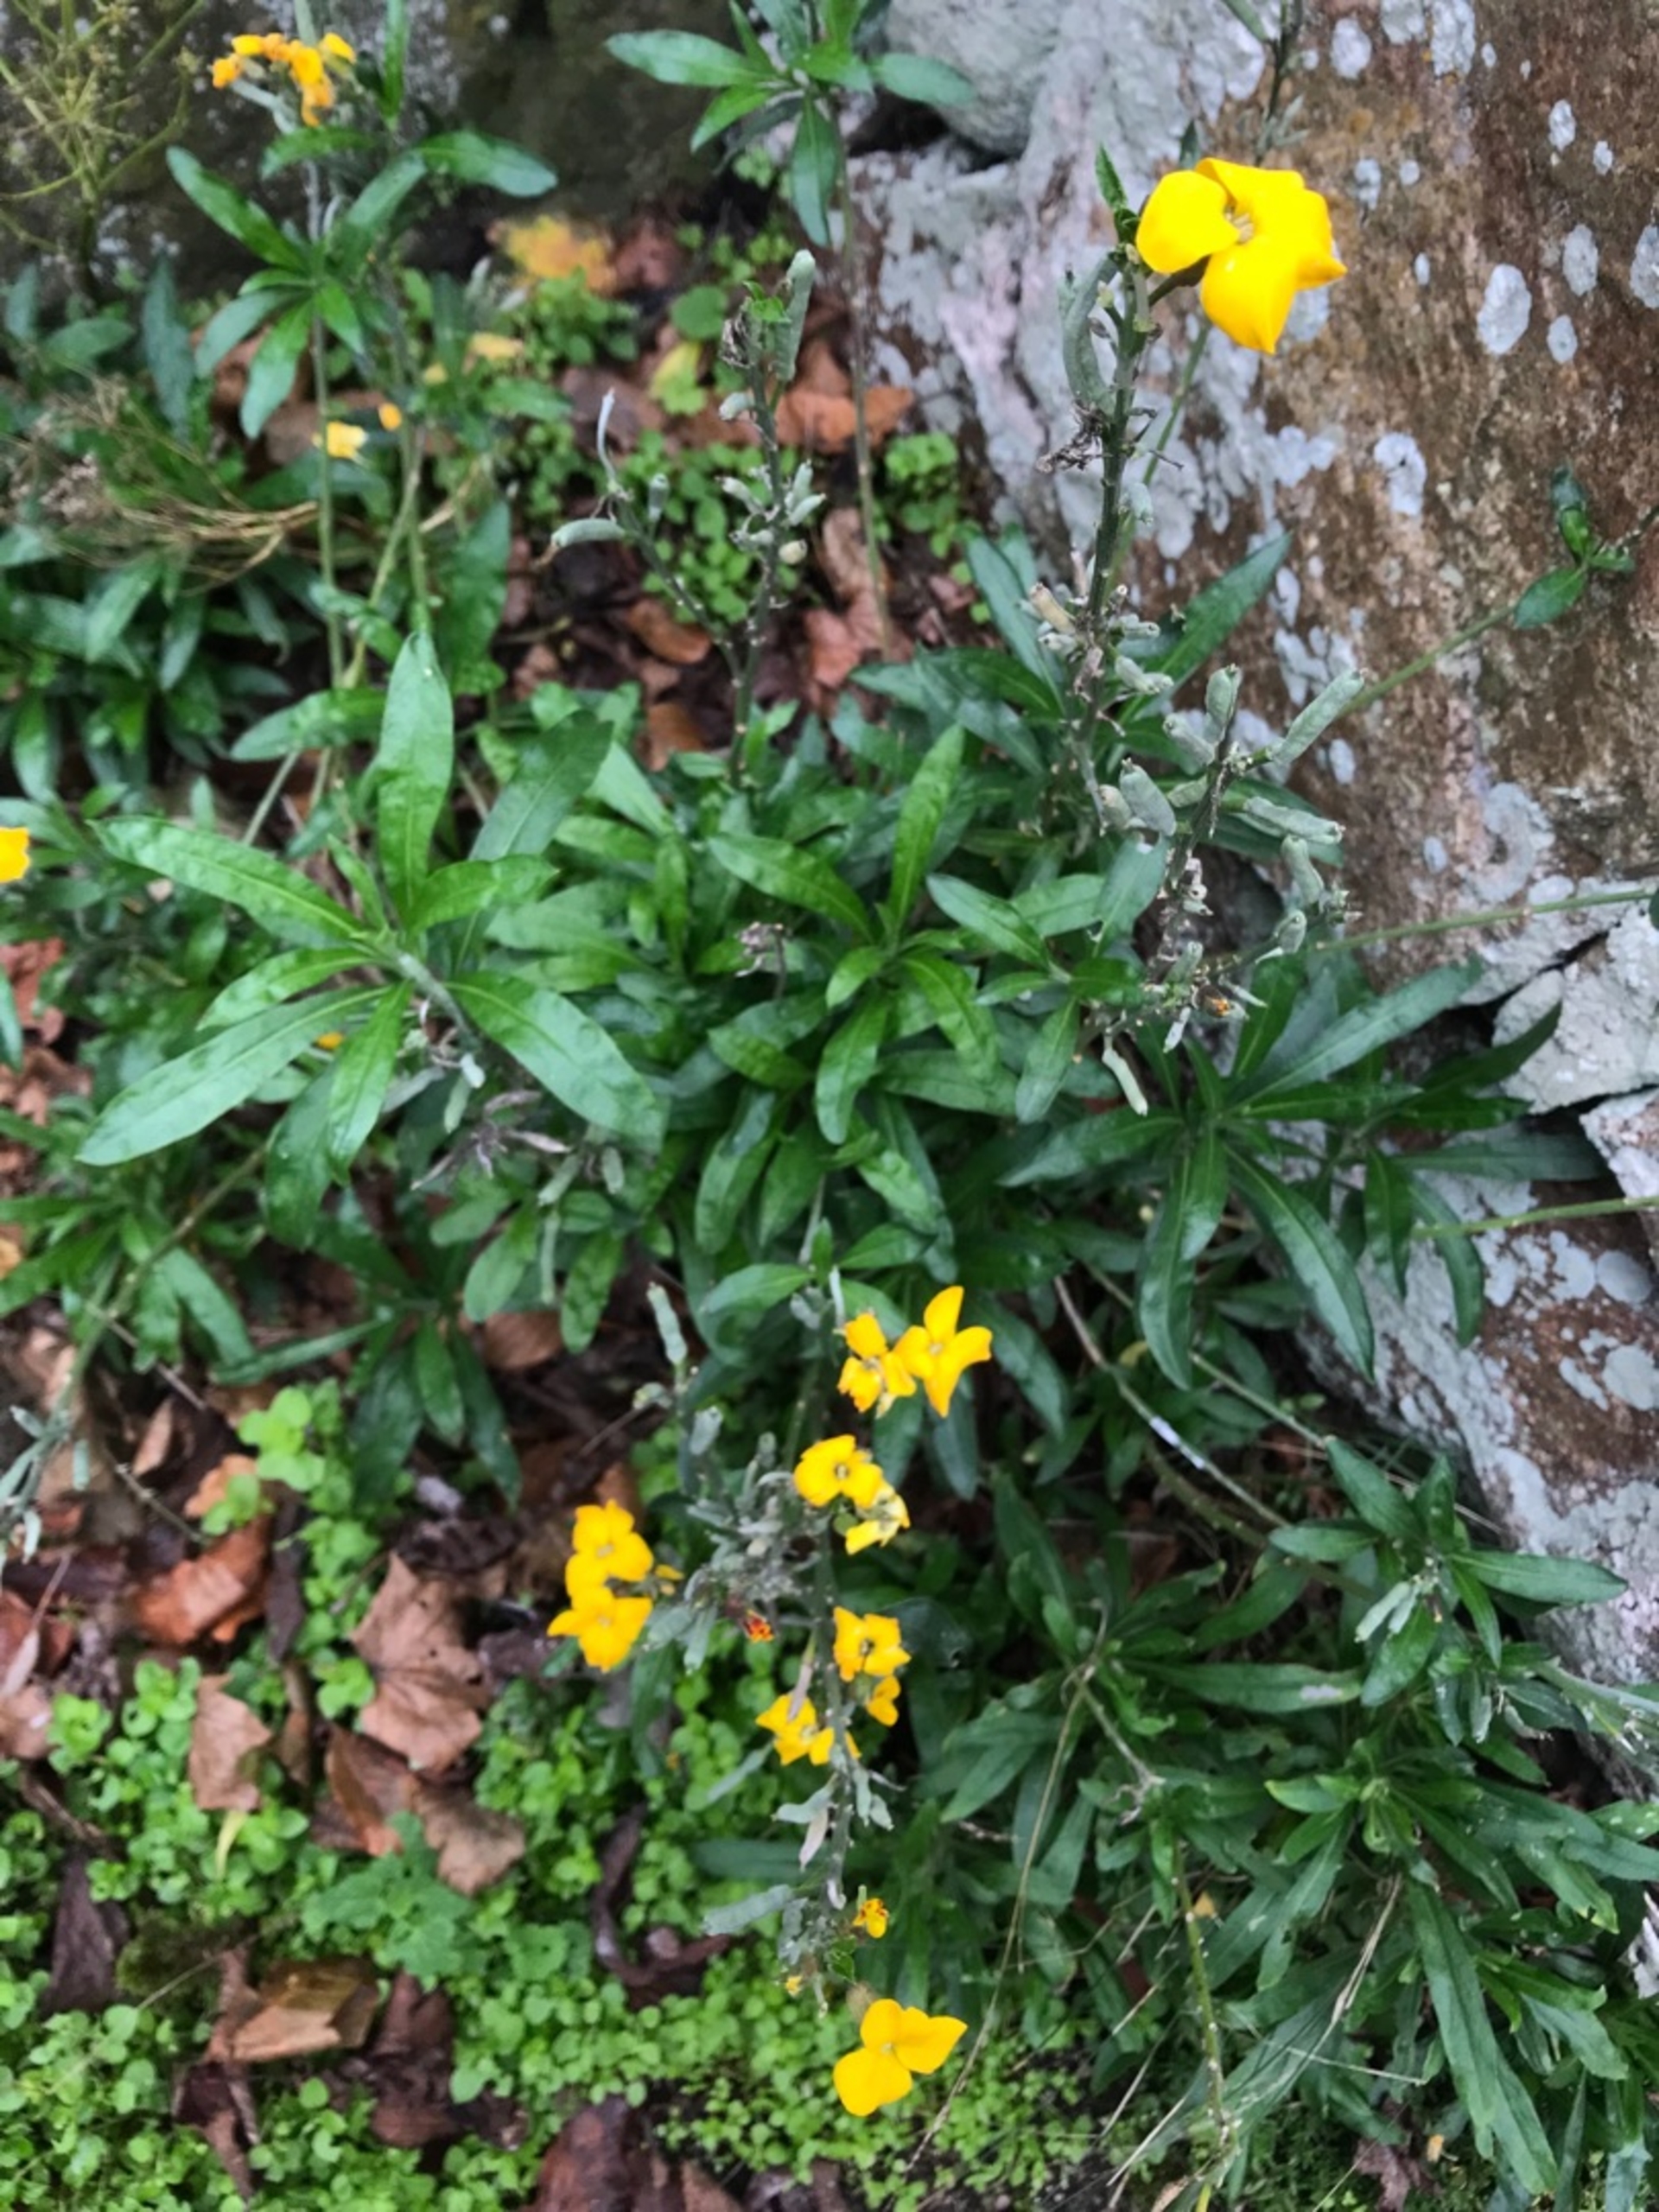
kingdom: Plantae
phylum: Tracheophyta
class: Magnoliopsida
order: Brassicales
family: Brassicaceae
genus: Erysimum
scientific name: Erysimum cheiri
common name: Gyldenlak
